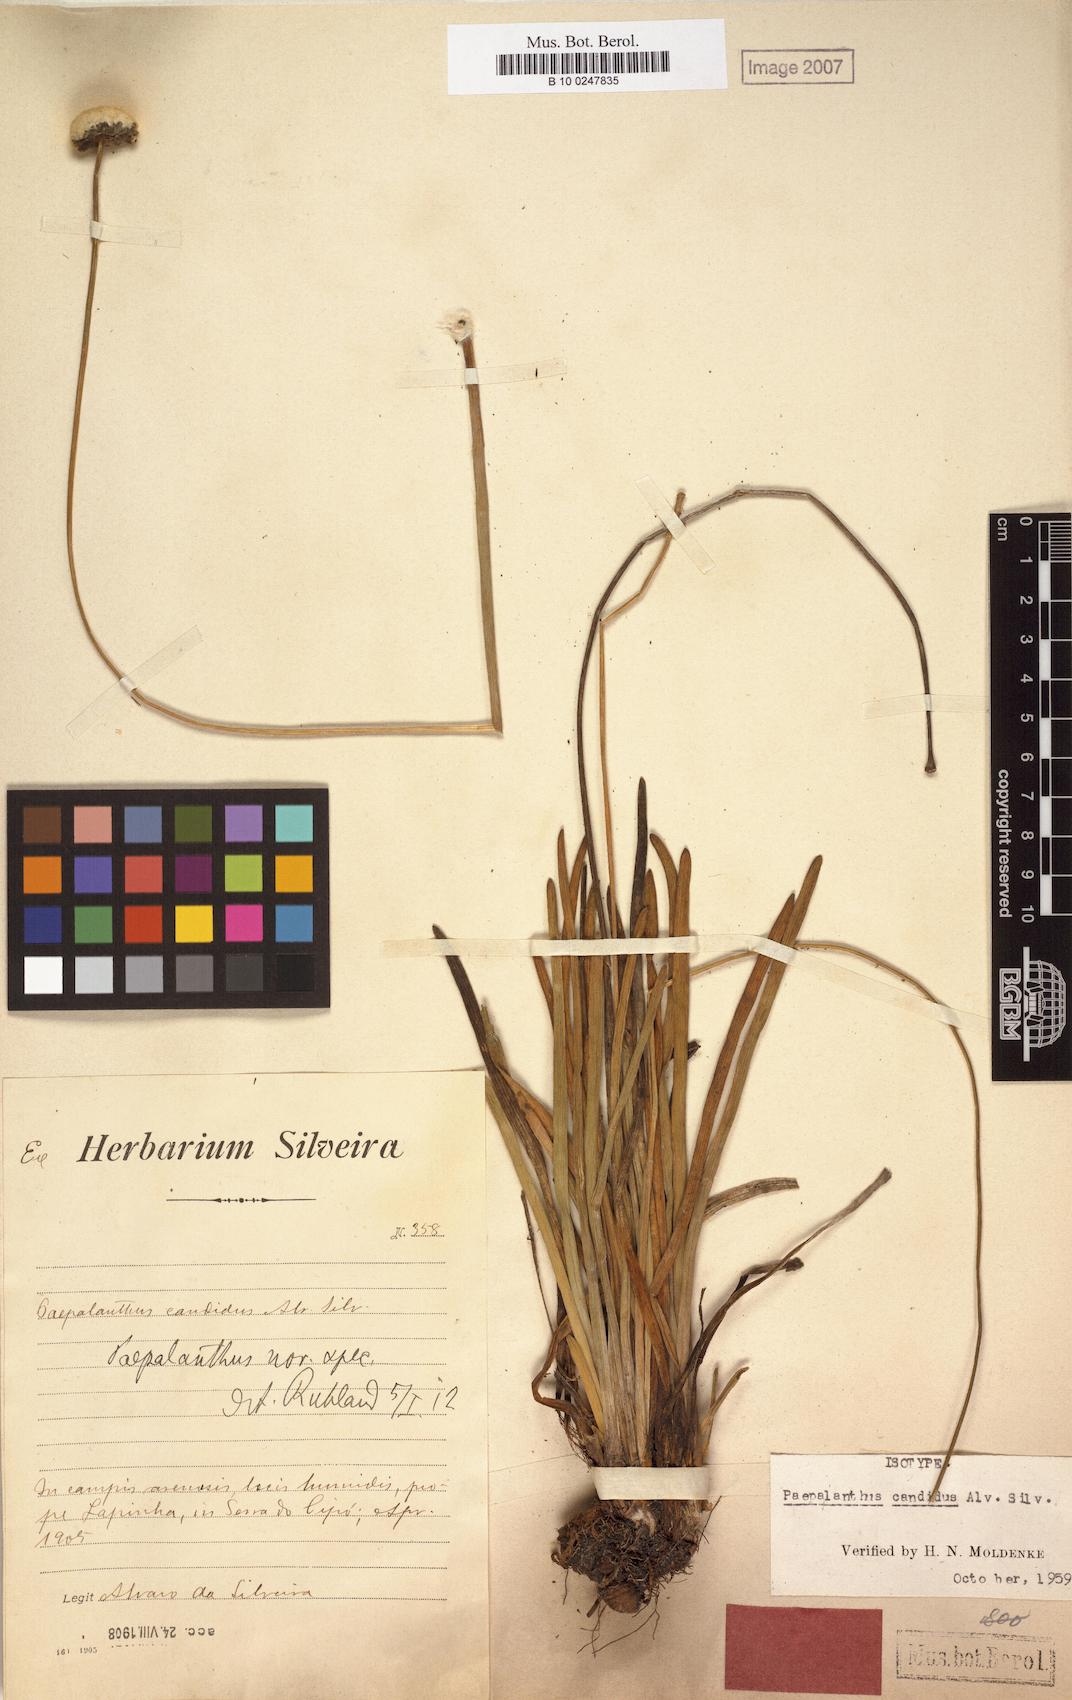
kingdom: Plantae
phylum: Tracheophyta
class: Liliopsida
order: Poales
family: Eriocaulaceae
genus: Paepalanthus
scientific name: Paepalanthus candidus
